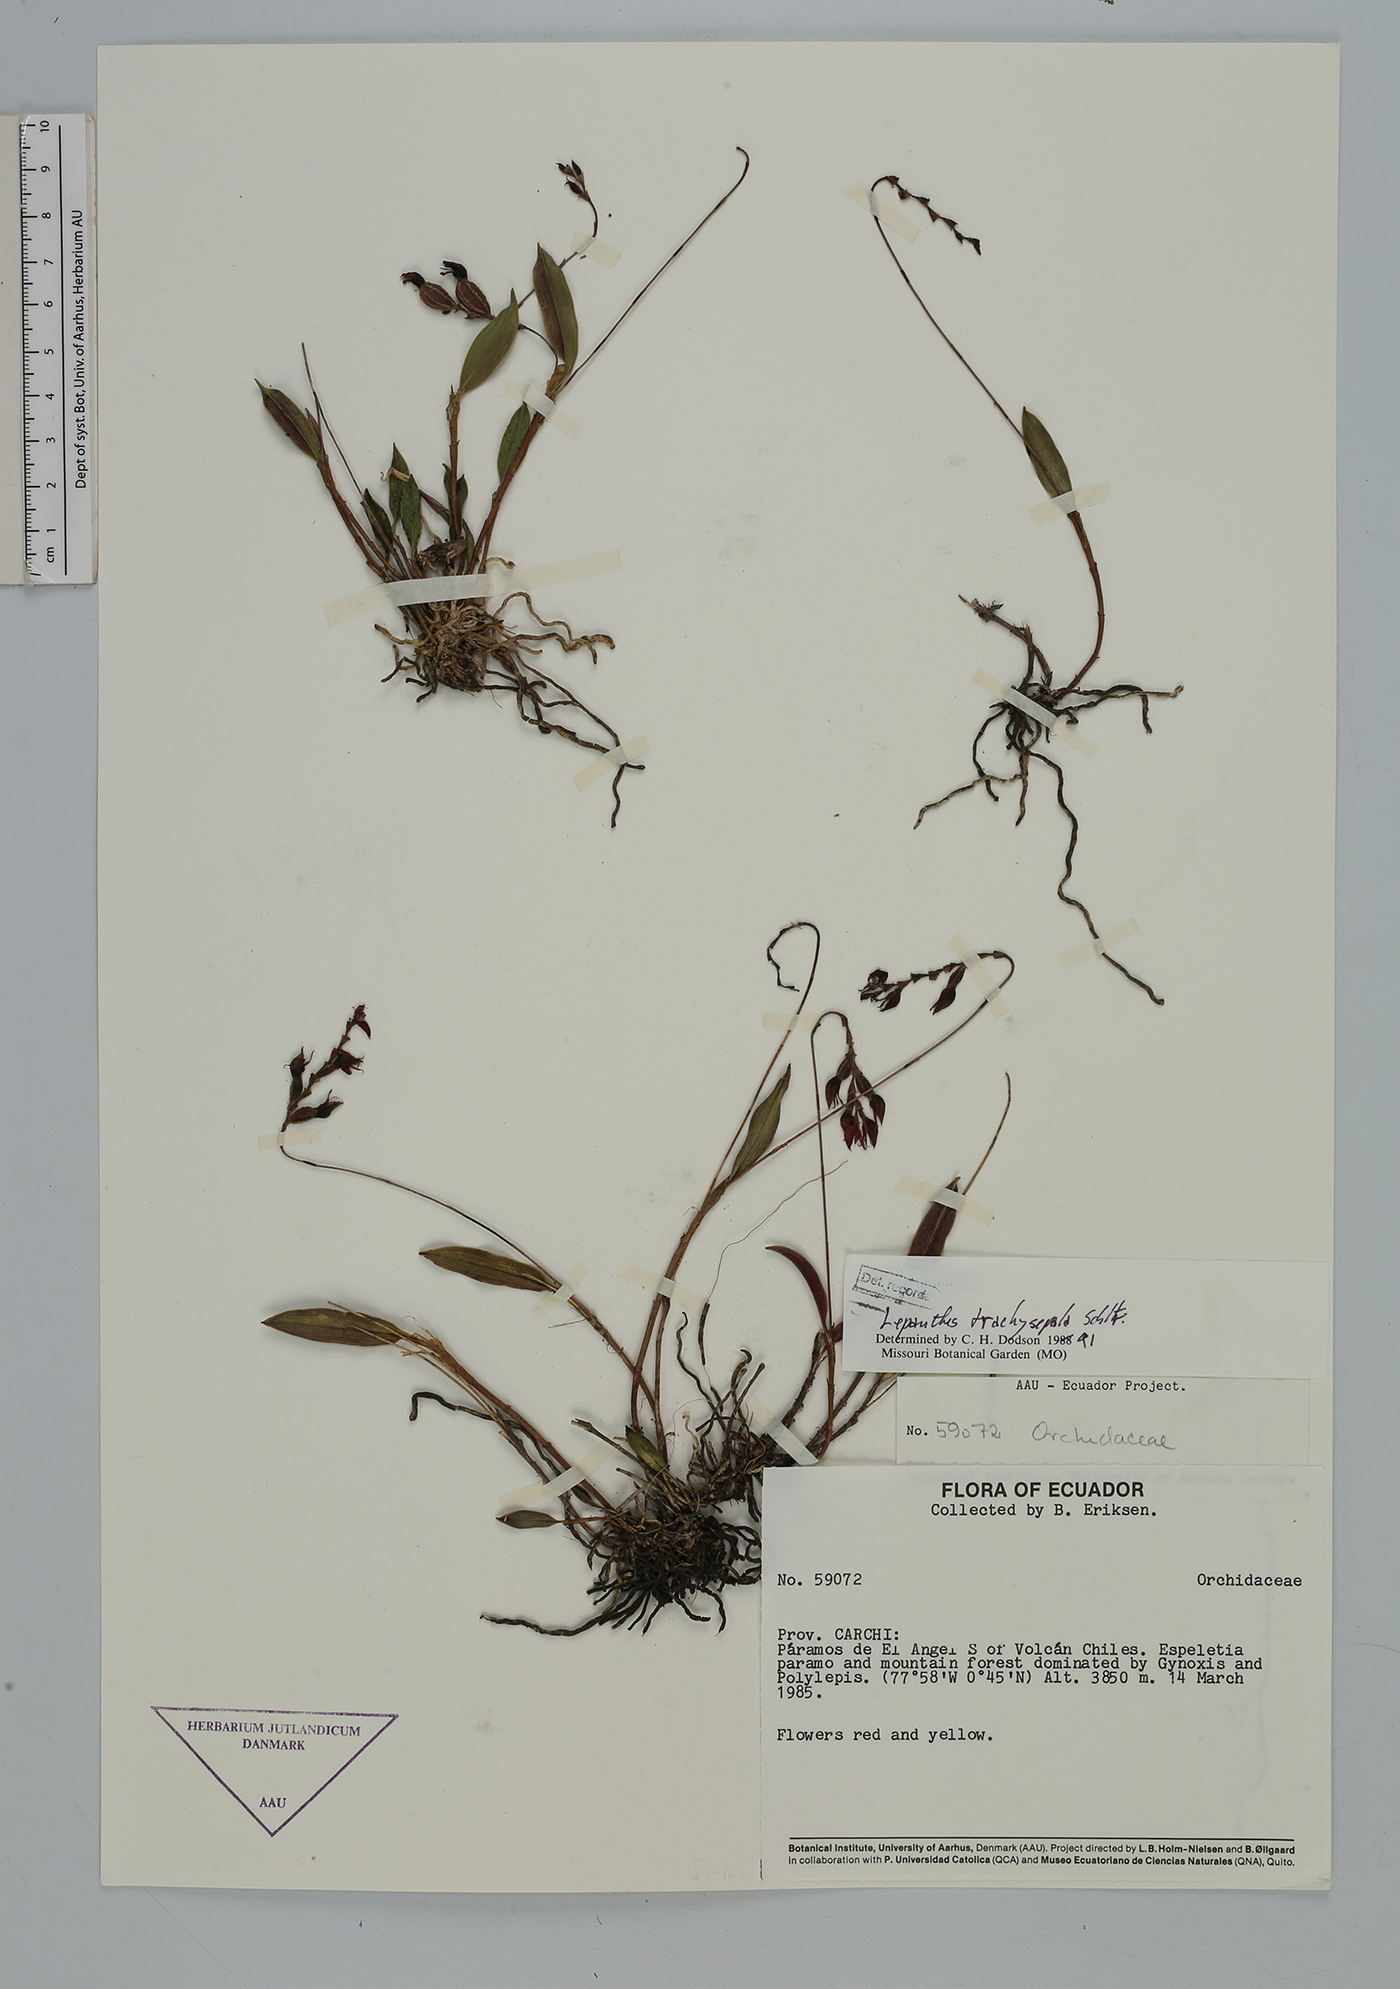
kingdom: Plantae
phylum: Tracheophyta
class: Liliopsida
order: Asparagales
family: Orchidaceae
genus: Draconanthes
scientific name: Draconanthes trachysepala
